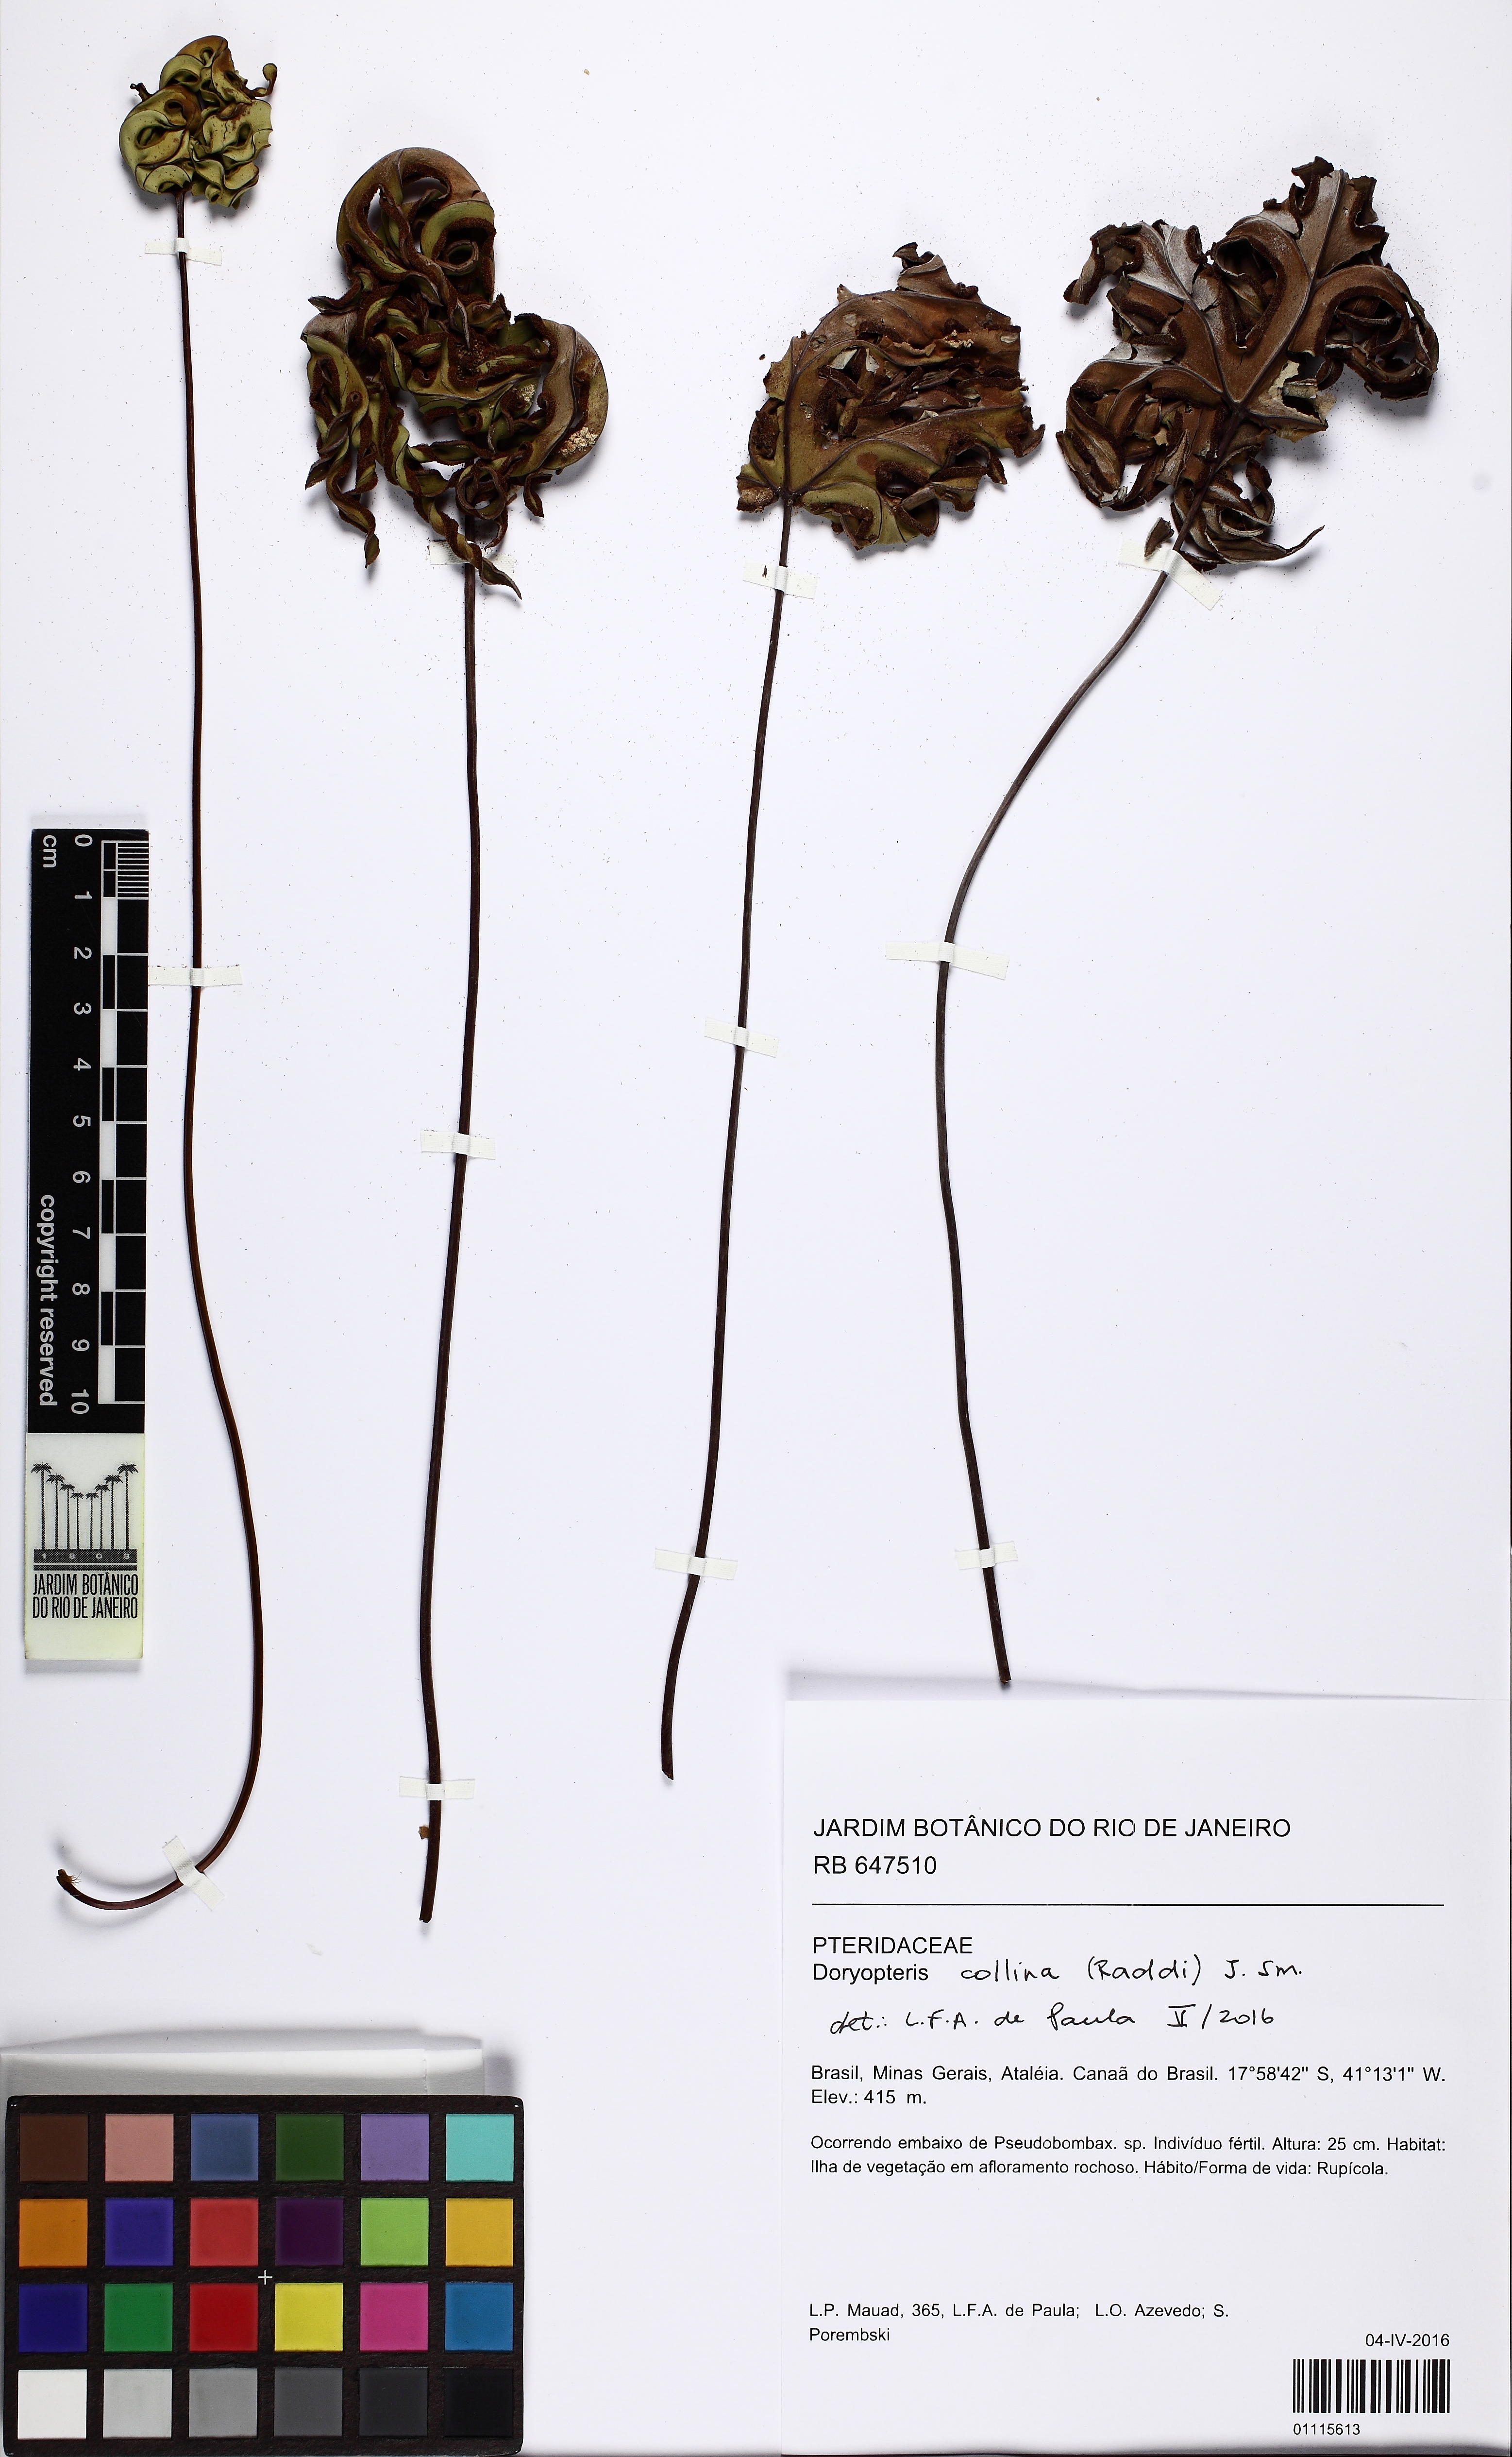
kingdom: Plantae
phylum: Tracheophyta
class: Polypodiopsida
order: Polypodiales
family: Pteridaceae
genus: Doryopteris
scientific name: Doryopteris collina
